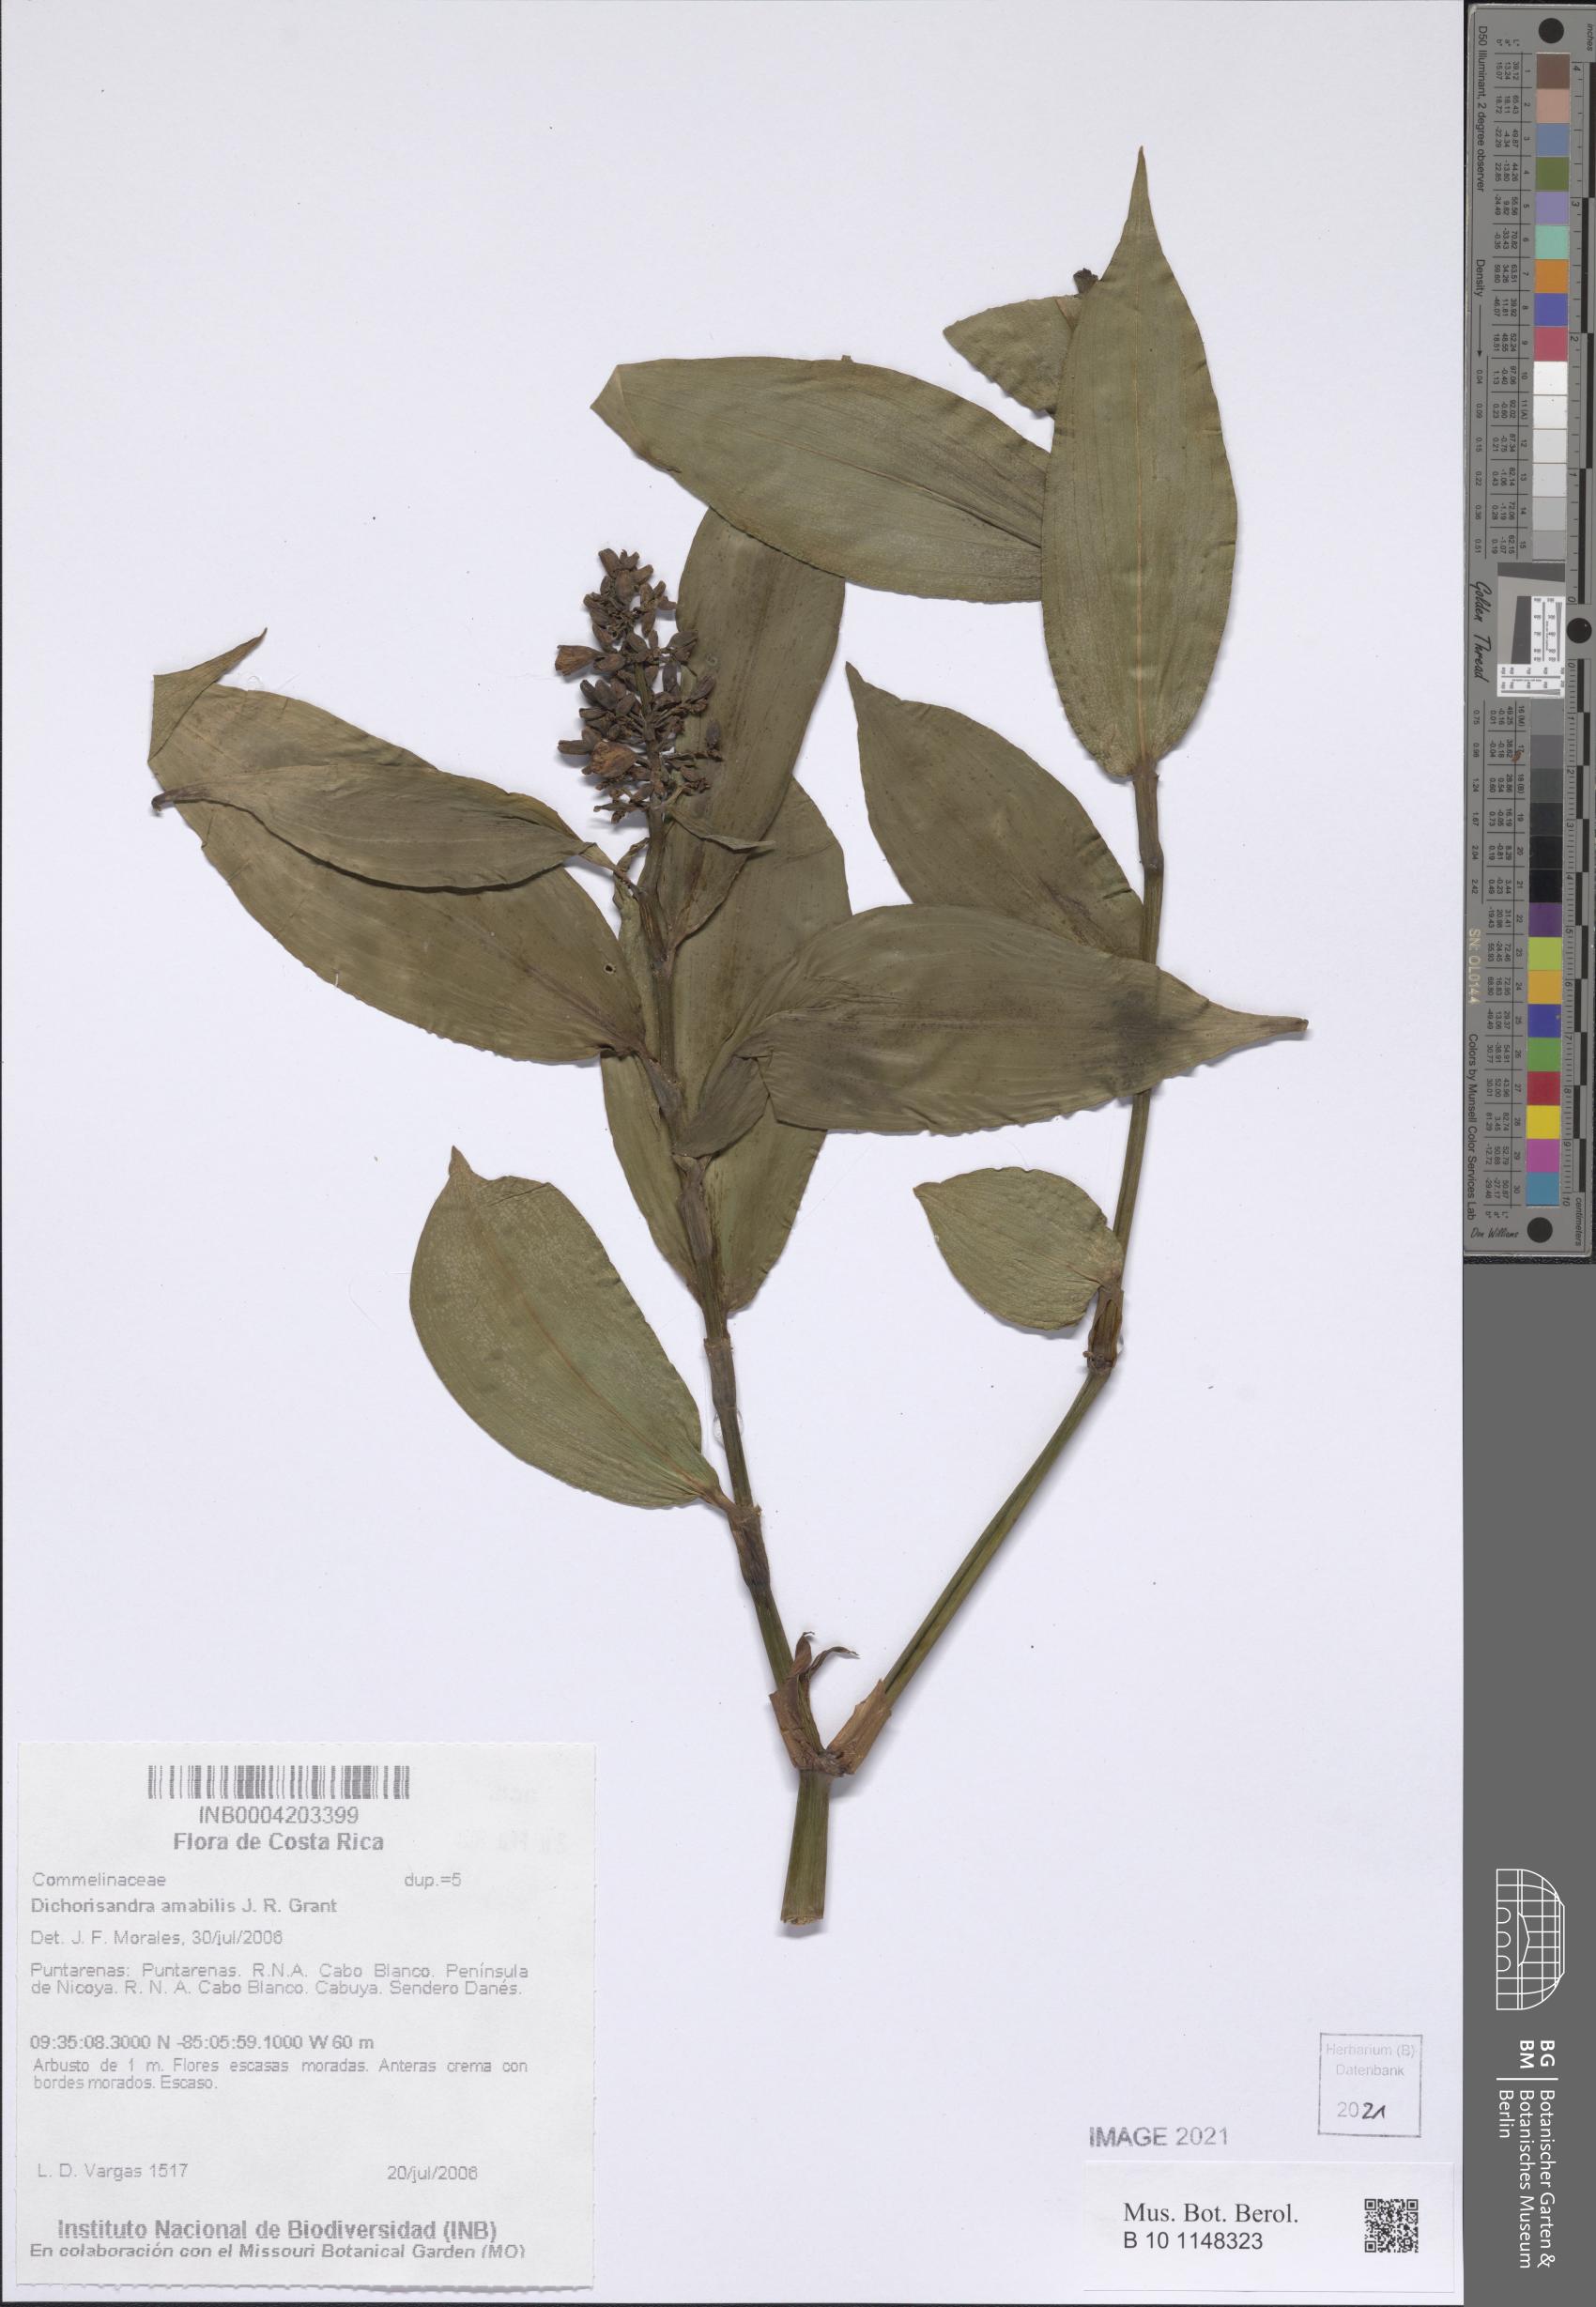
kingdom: Plantae
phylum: Tracheophyta
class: Liliopsida
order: Commelinales
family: Commelinaceae
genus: Dichorisandra
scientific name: Dichorisandra amabilis
